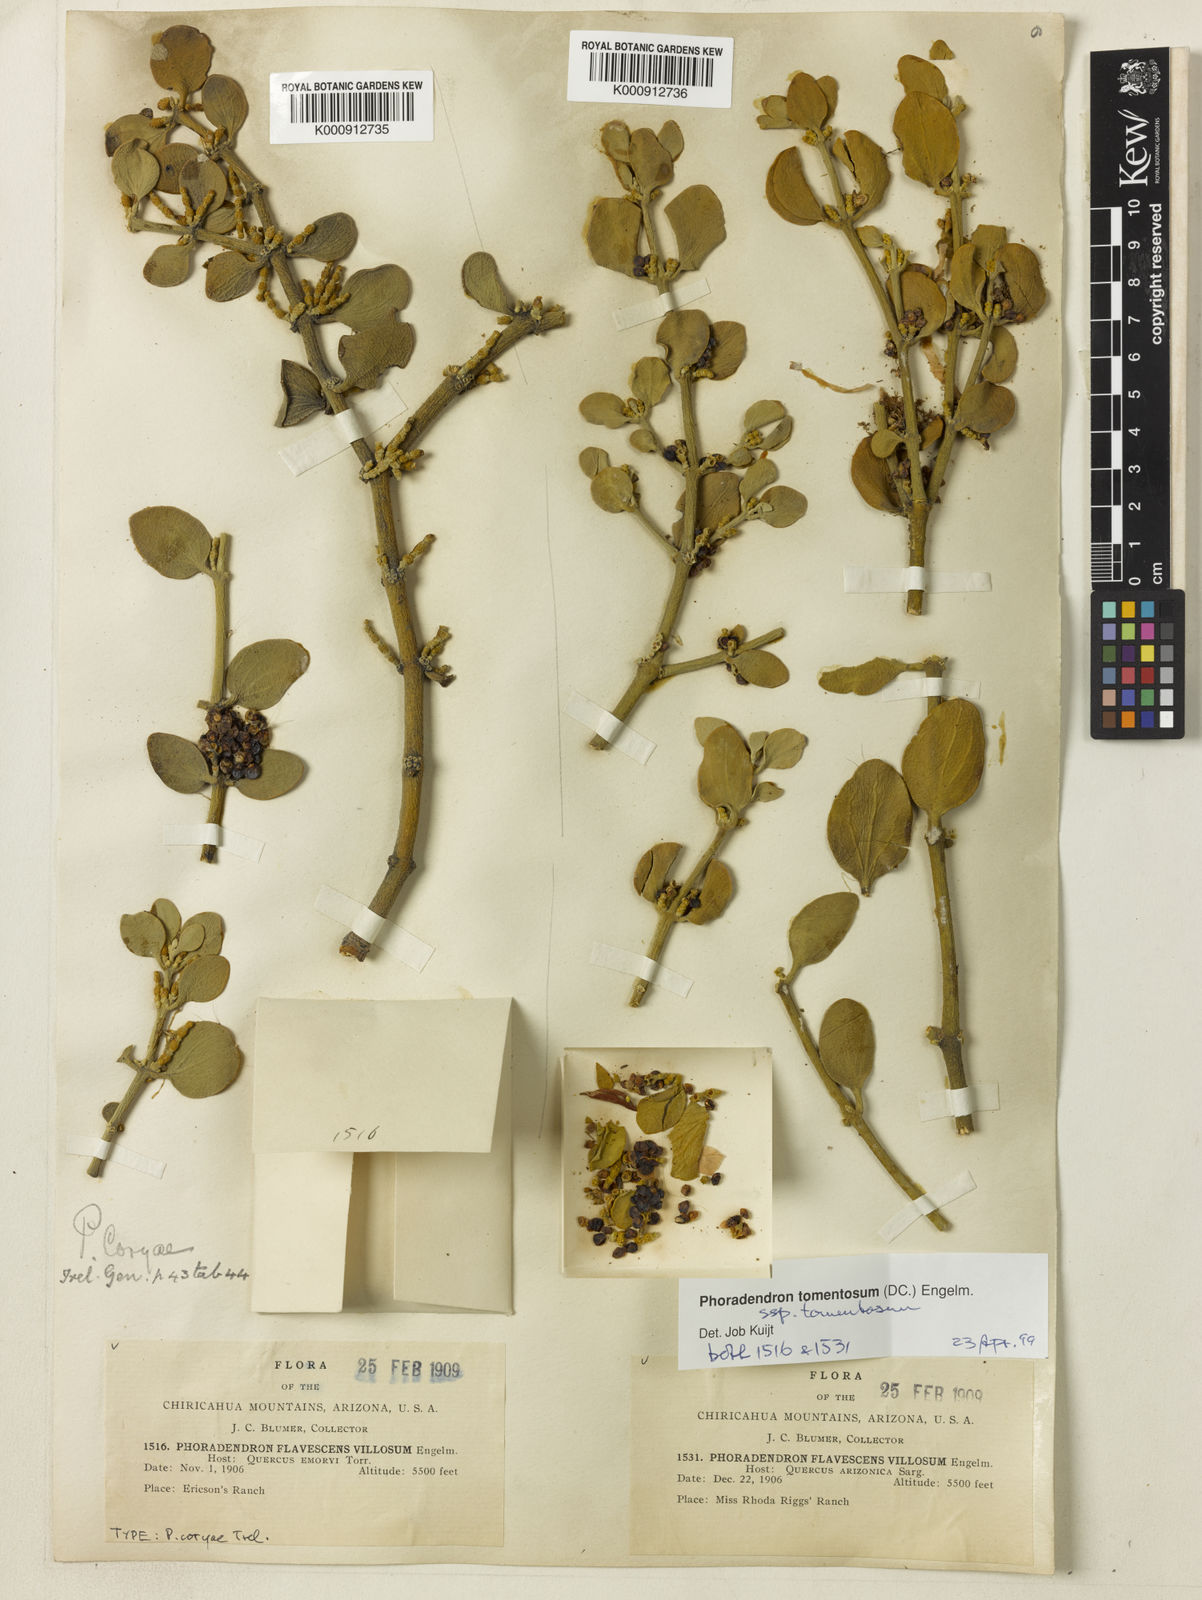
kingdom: Plantae
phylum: Tracheophyta
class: Magnoliopsida
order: Santalales
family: Viscaceae
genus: Phoradendron
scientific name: Phoradendron
